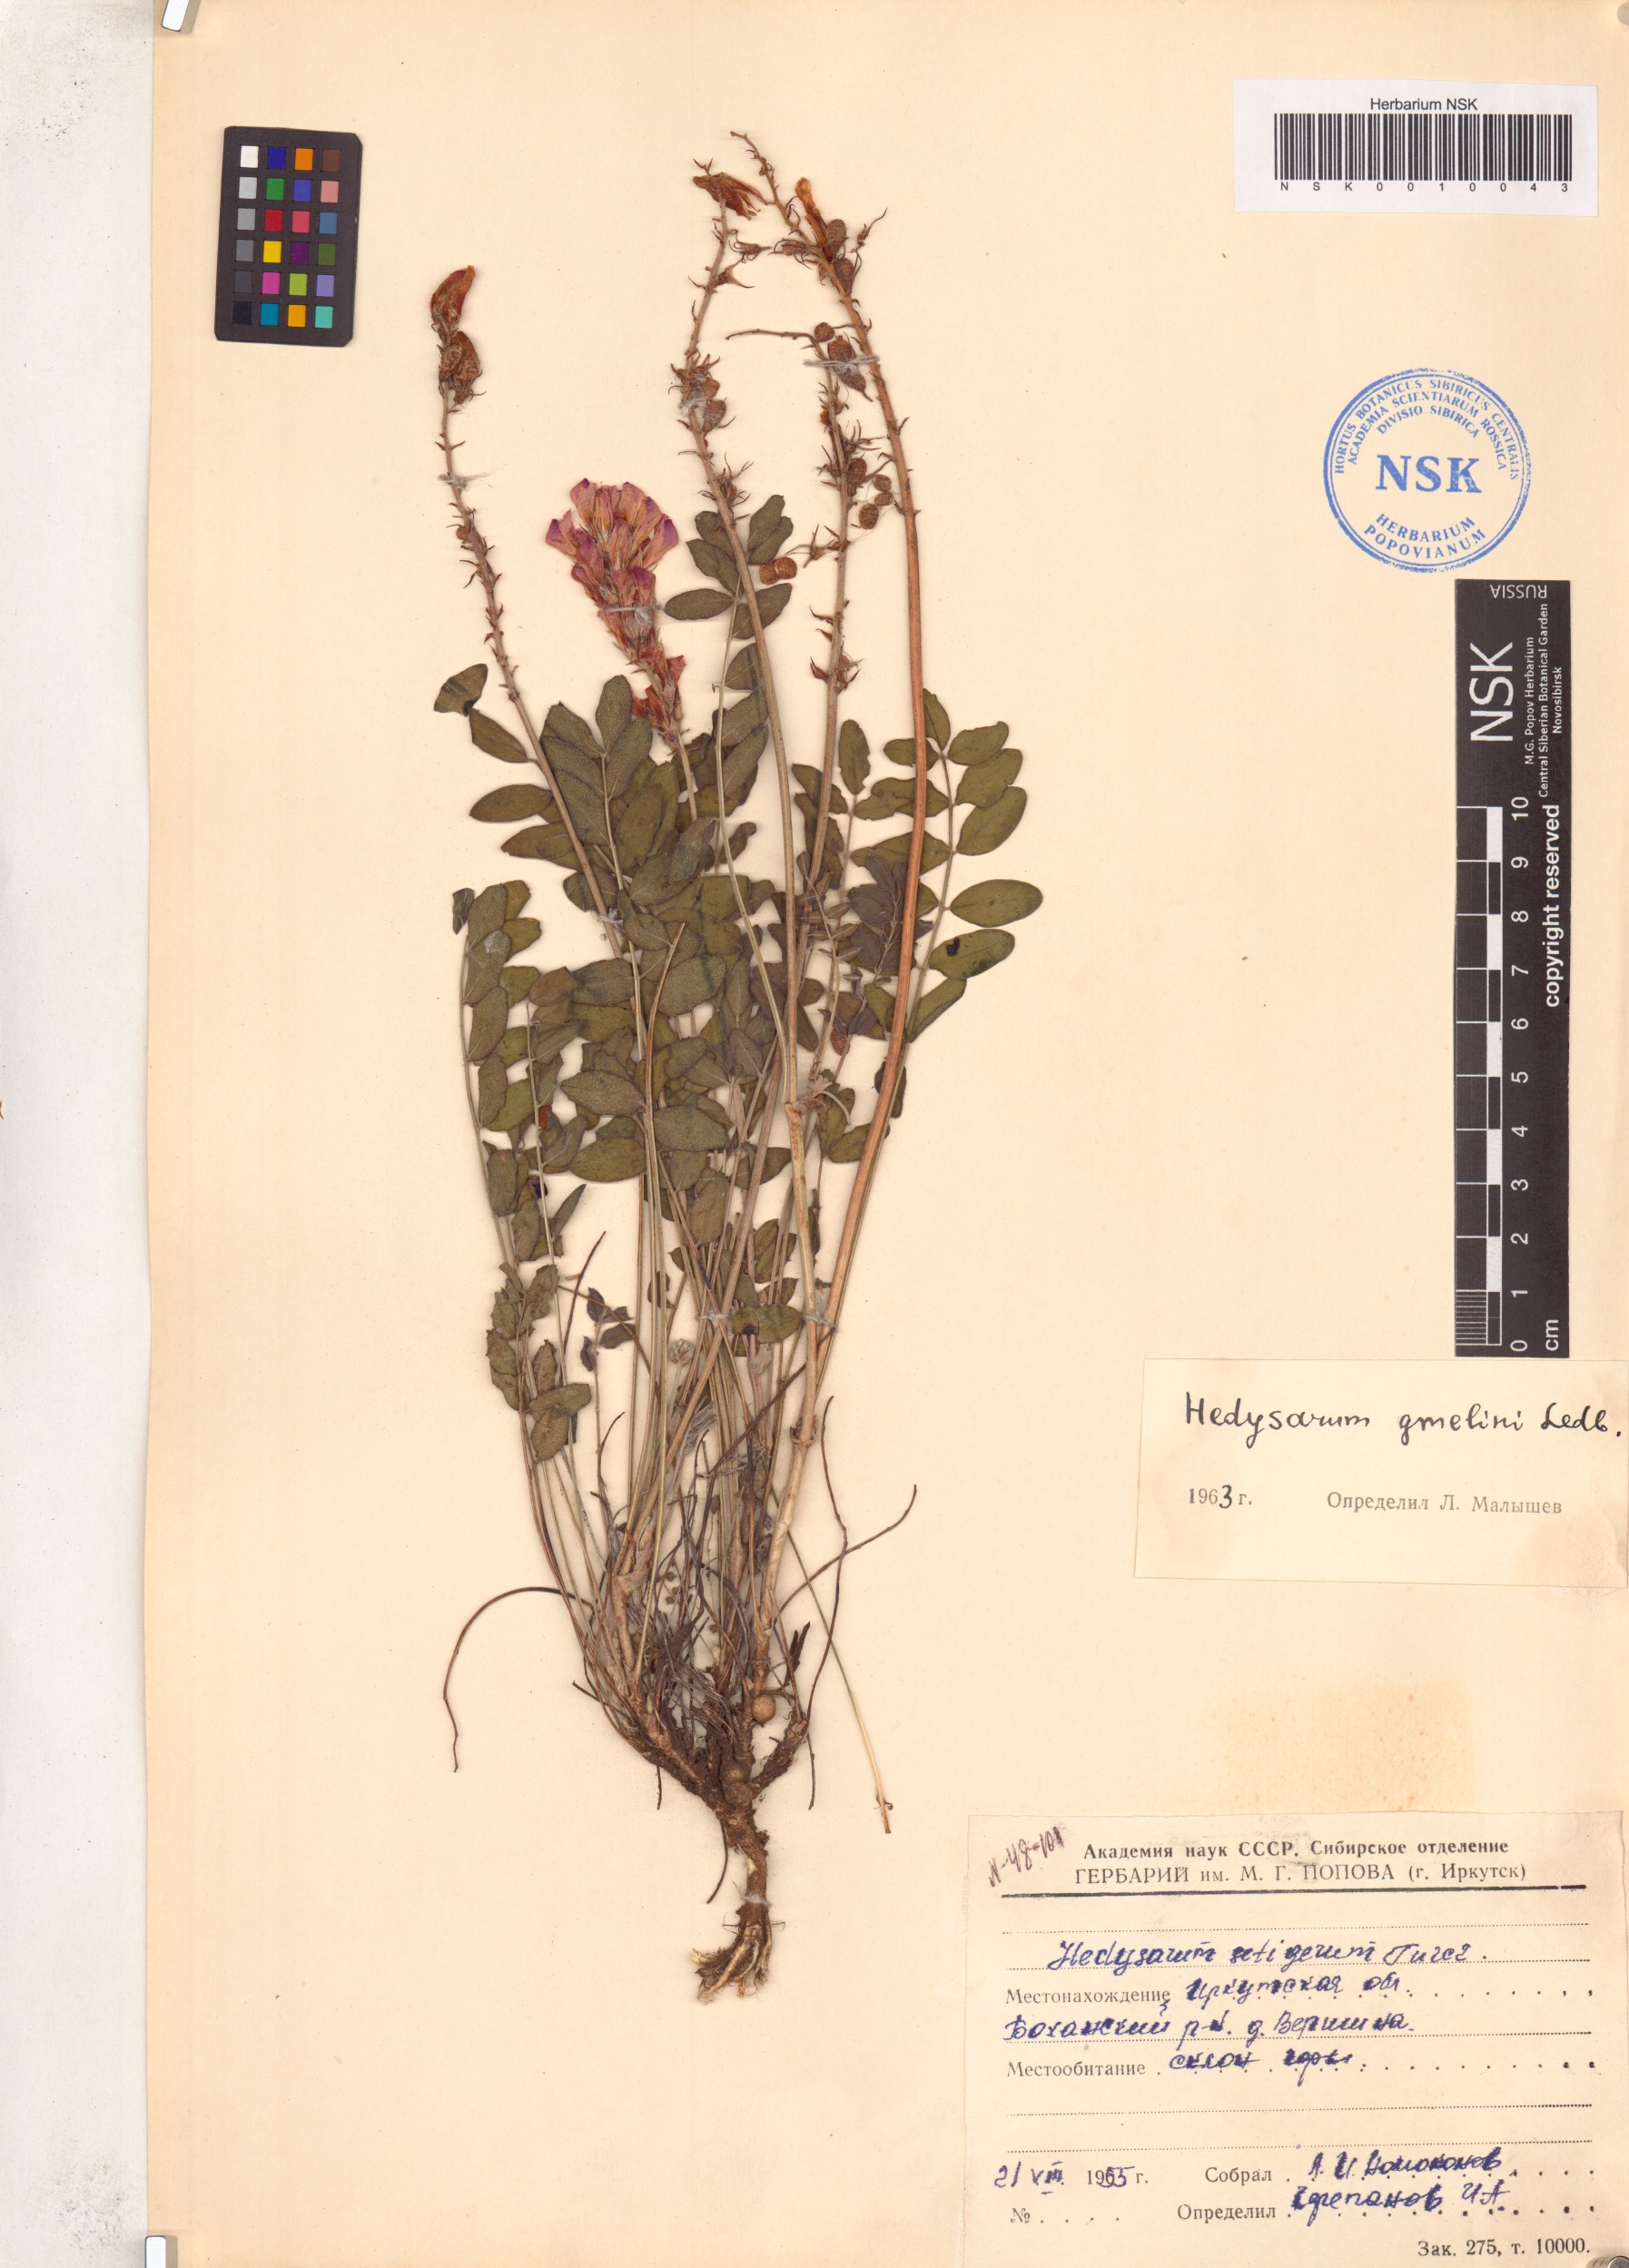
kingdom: Plantae
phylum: Tracheophyta
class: Magnoliopsida
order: Fabales
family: Fabaceae
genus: Hedysarum
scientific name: Hedysarum gmelinii
